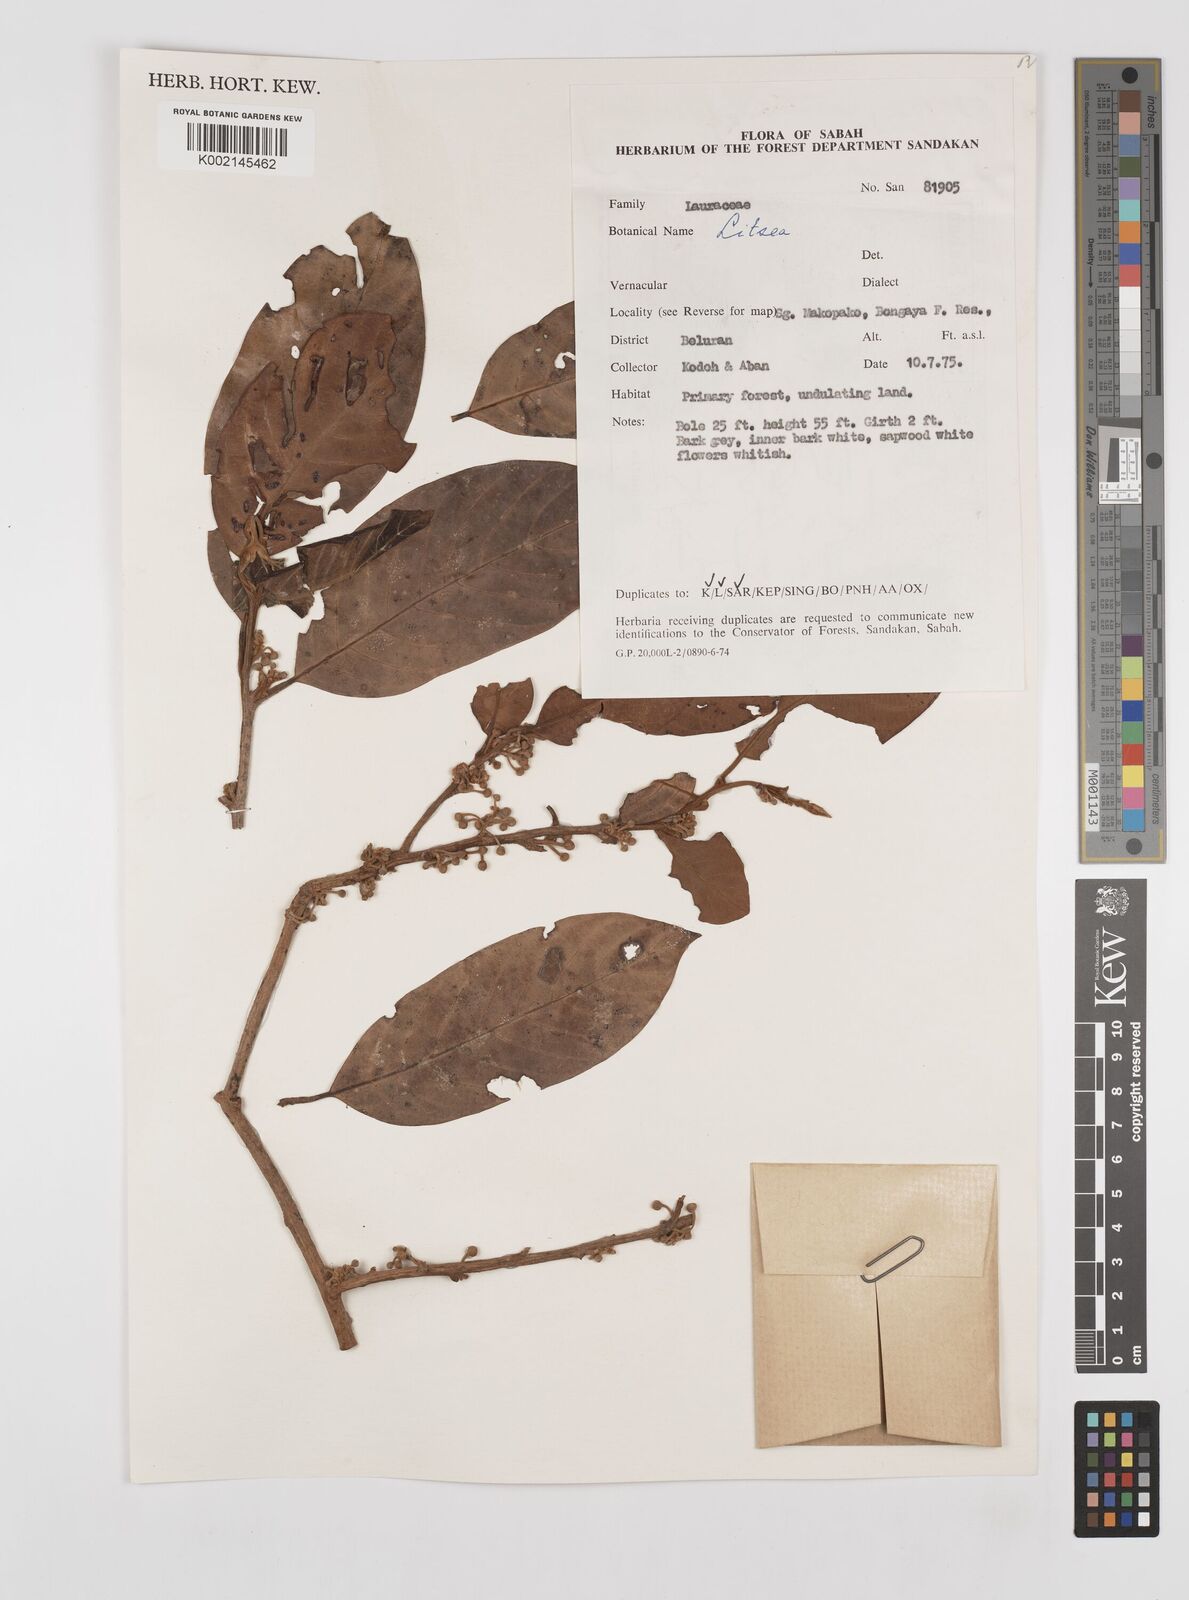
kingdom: Plantae
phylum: Tracheophyta
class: Magnoliopsida
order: Laurales
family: Lauraceae
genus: Litsea
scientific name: Litsea
